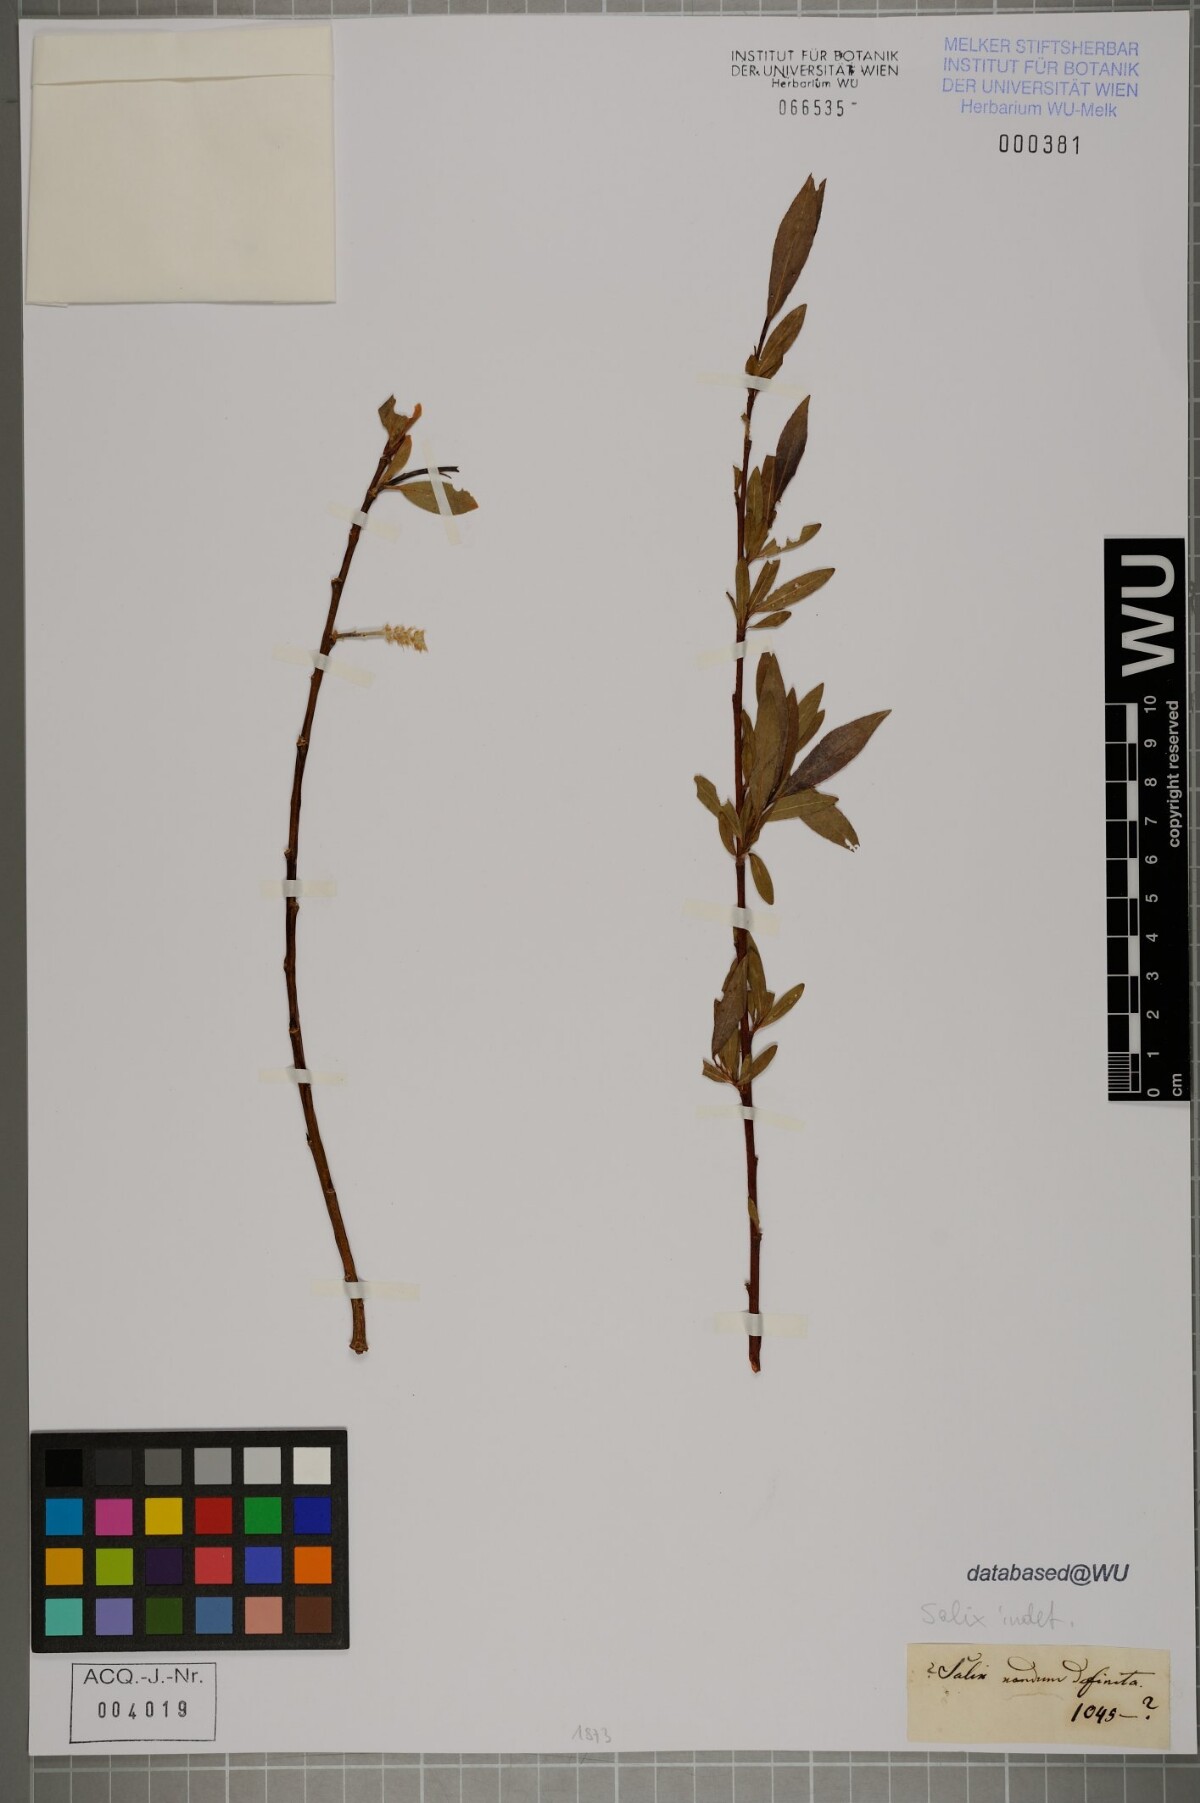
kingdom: Plantae
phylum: Tracheophyta
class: Magnoliopsida
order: Malpighiales
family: Salicaceae
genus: Salix
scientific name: Salix
